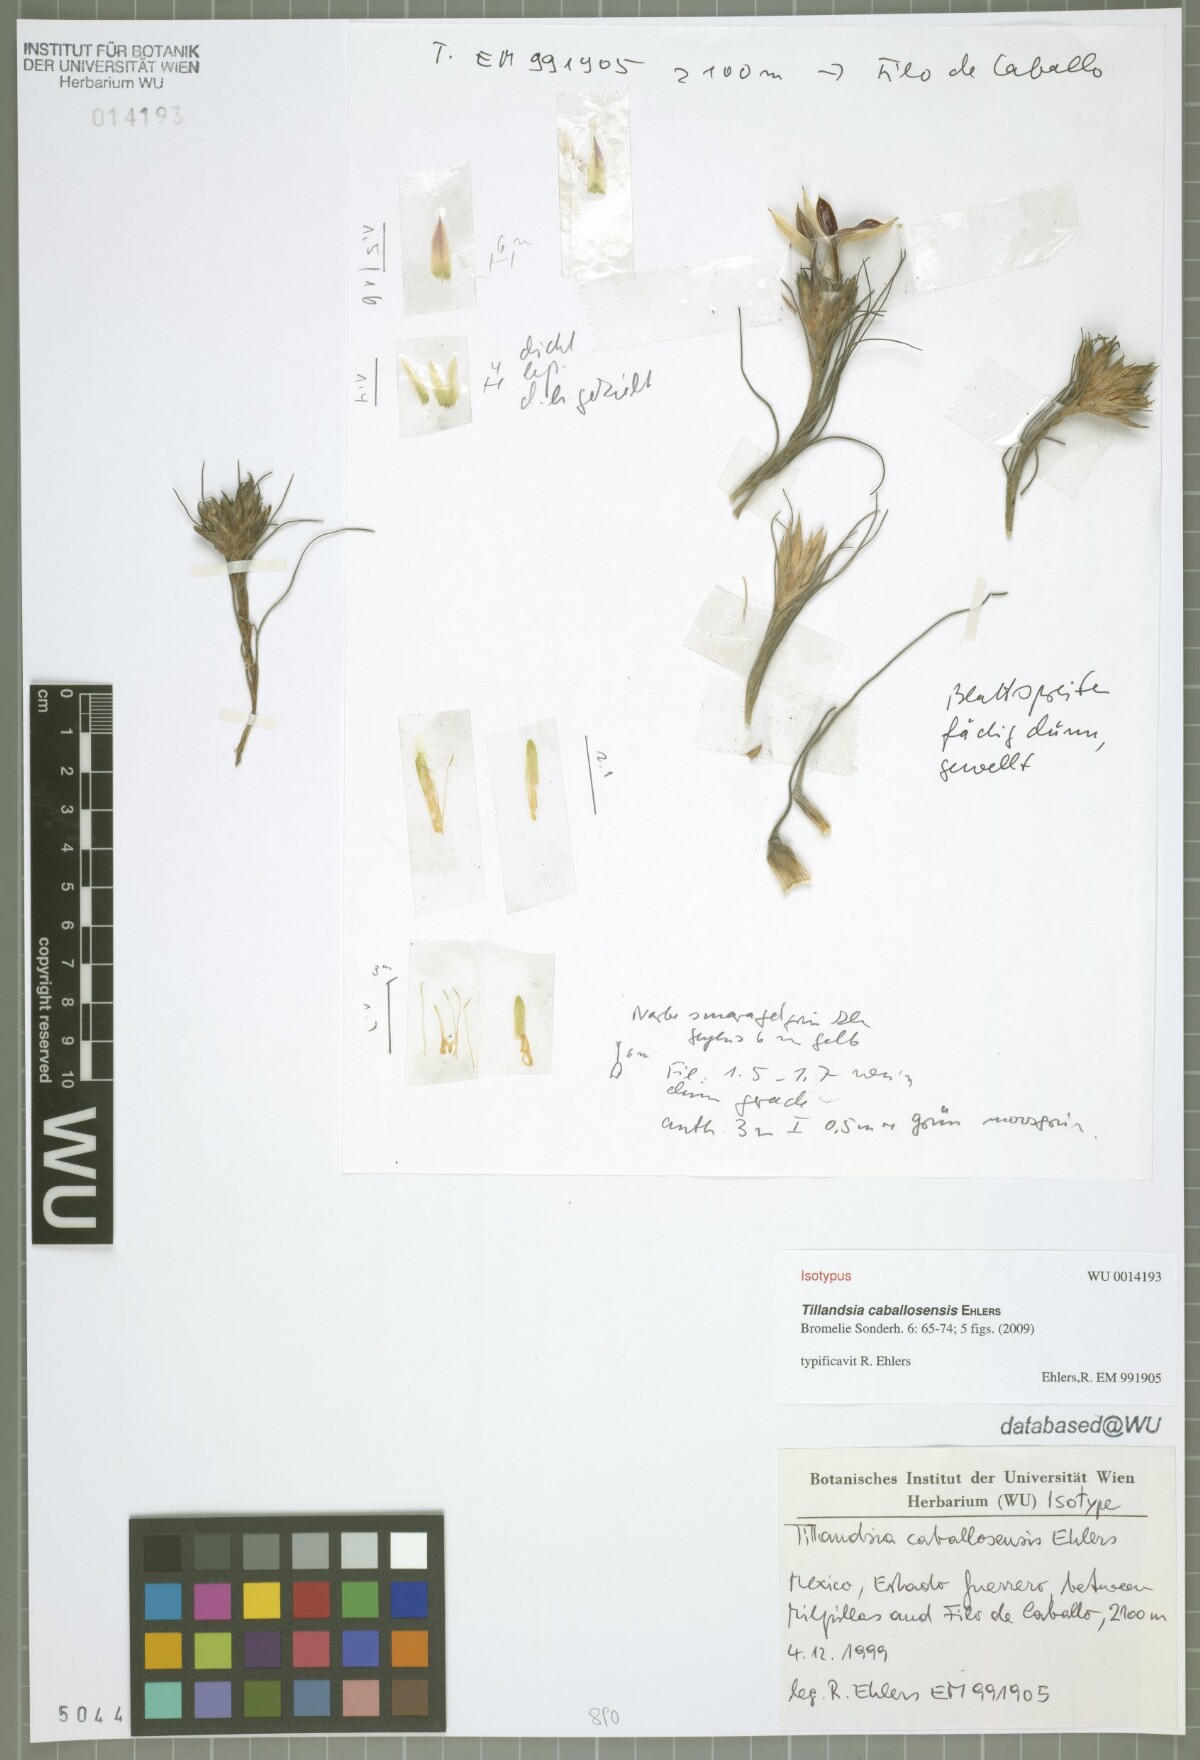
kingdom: Plantae
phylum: Tracheophyta
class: Liliopsida
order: Poales
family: Bromeliaceae
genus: Tillandsia
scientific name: Tillandsia caballosensis
